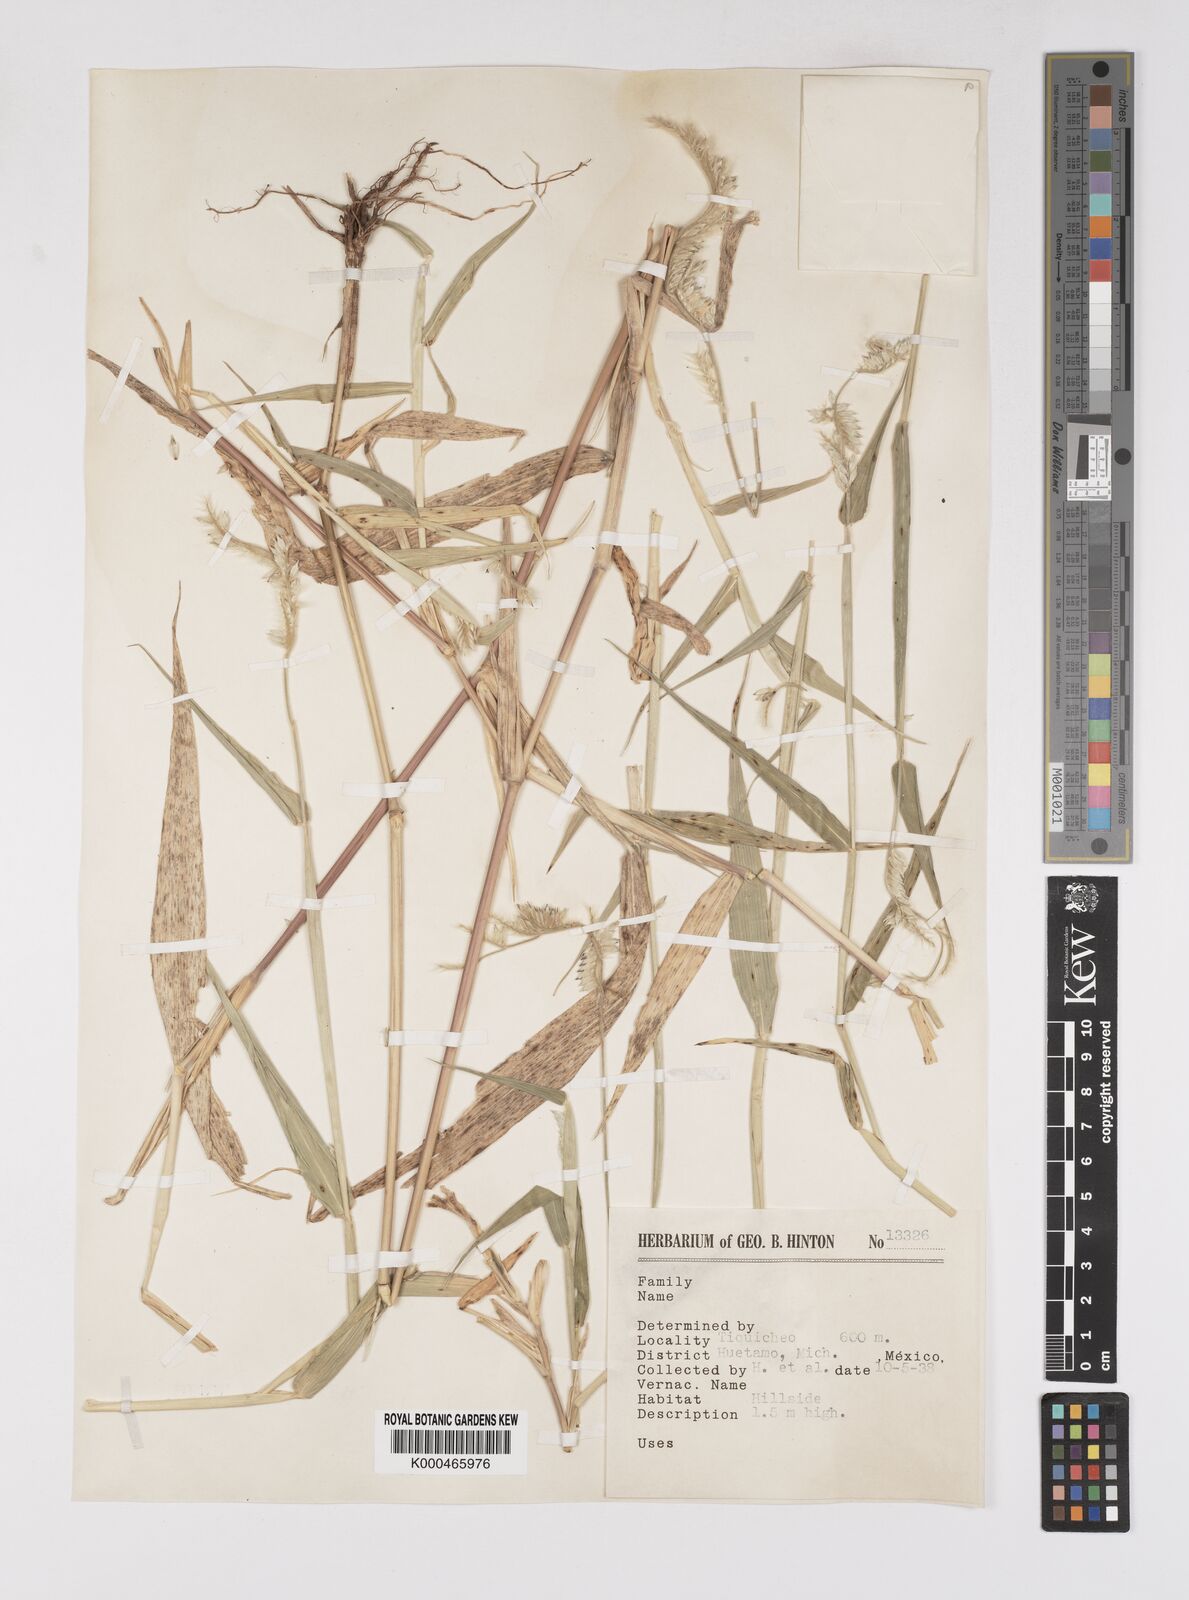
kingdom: Plantae
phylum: Tracheophyta
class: Liliopsida
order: Poales
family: Poaceae
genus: Eriochloa
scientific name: Eriochloa nelsonii
